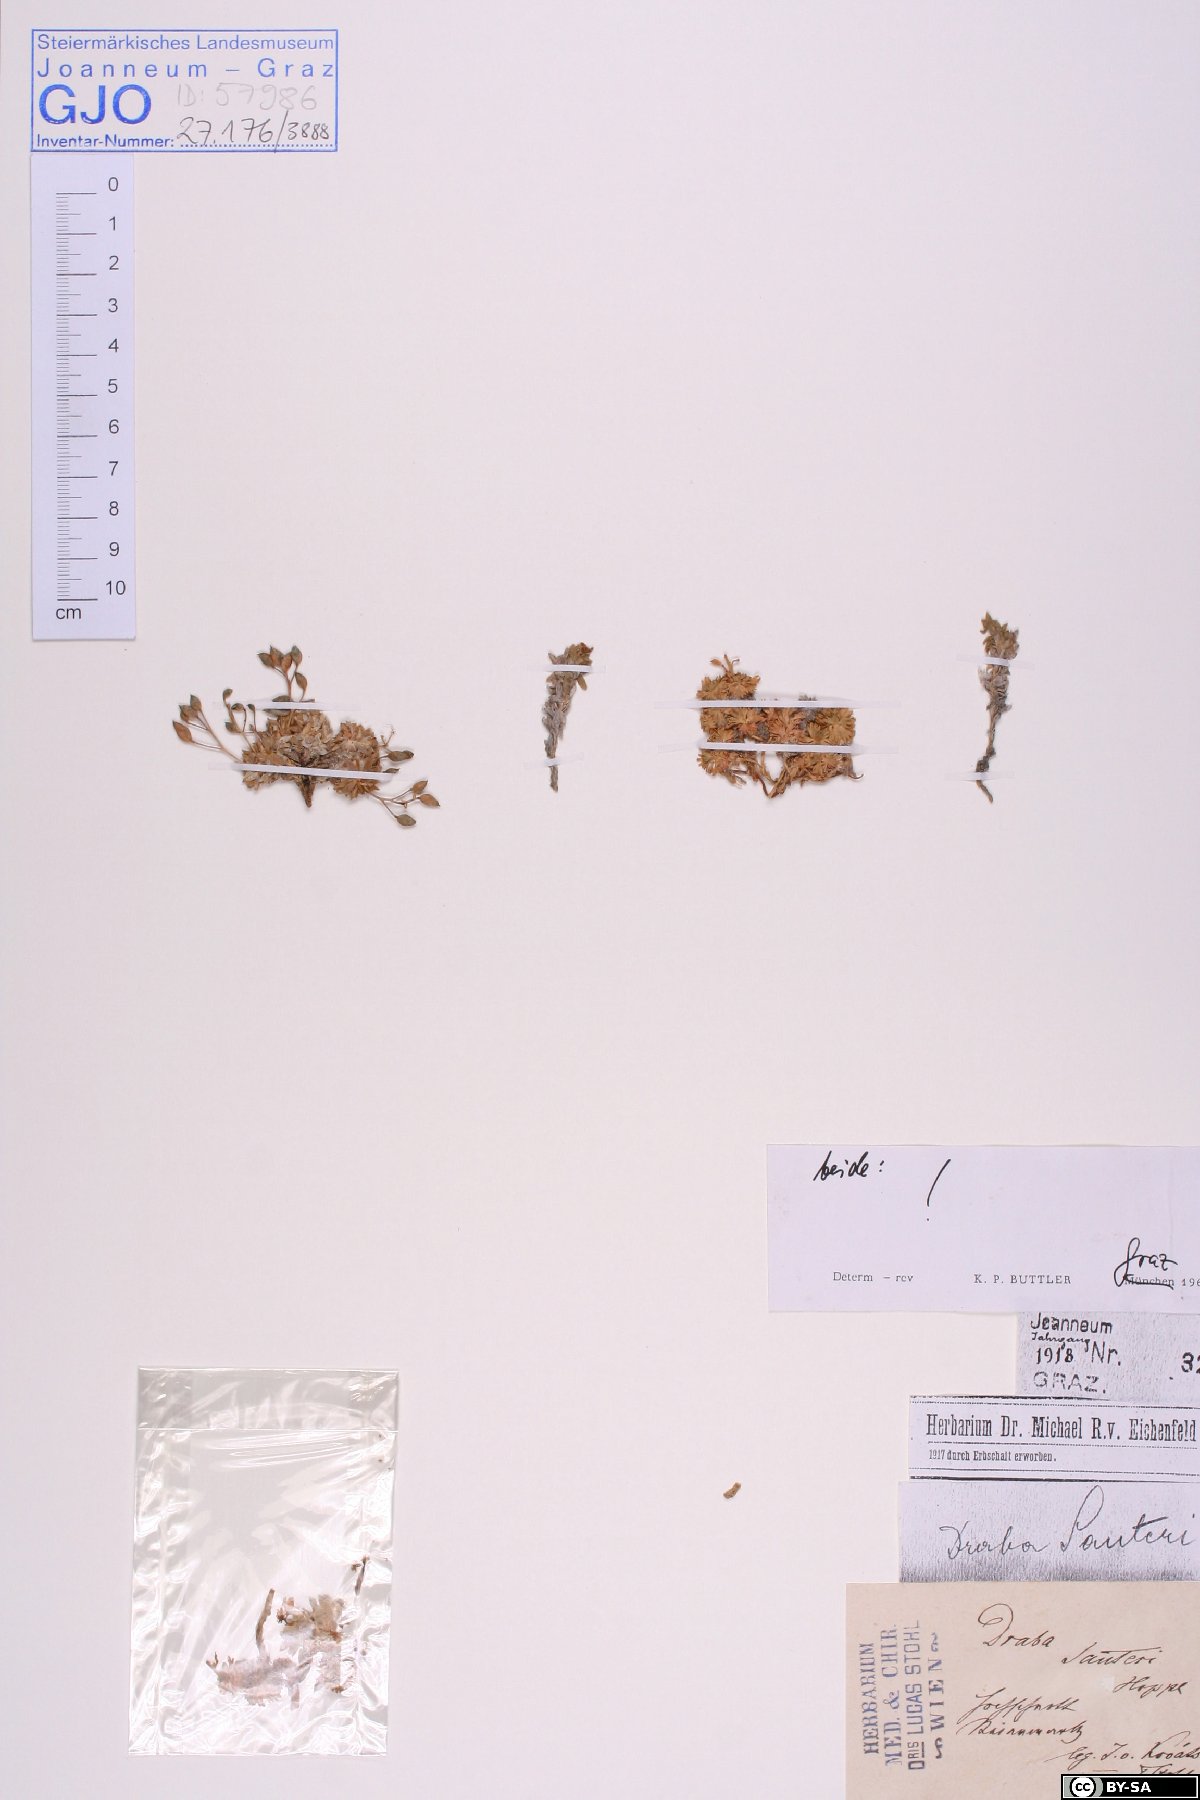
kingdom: Plantae
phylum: Tracheophyta
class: Magnoliopsida
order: Brassicales
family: Brassicaceae
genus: Draba
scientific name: Draba sauteri
